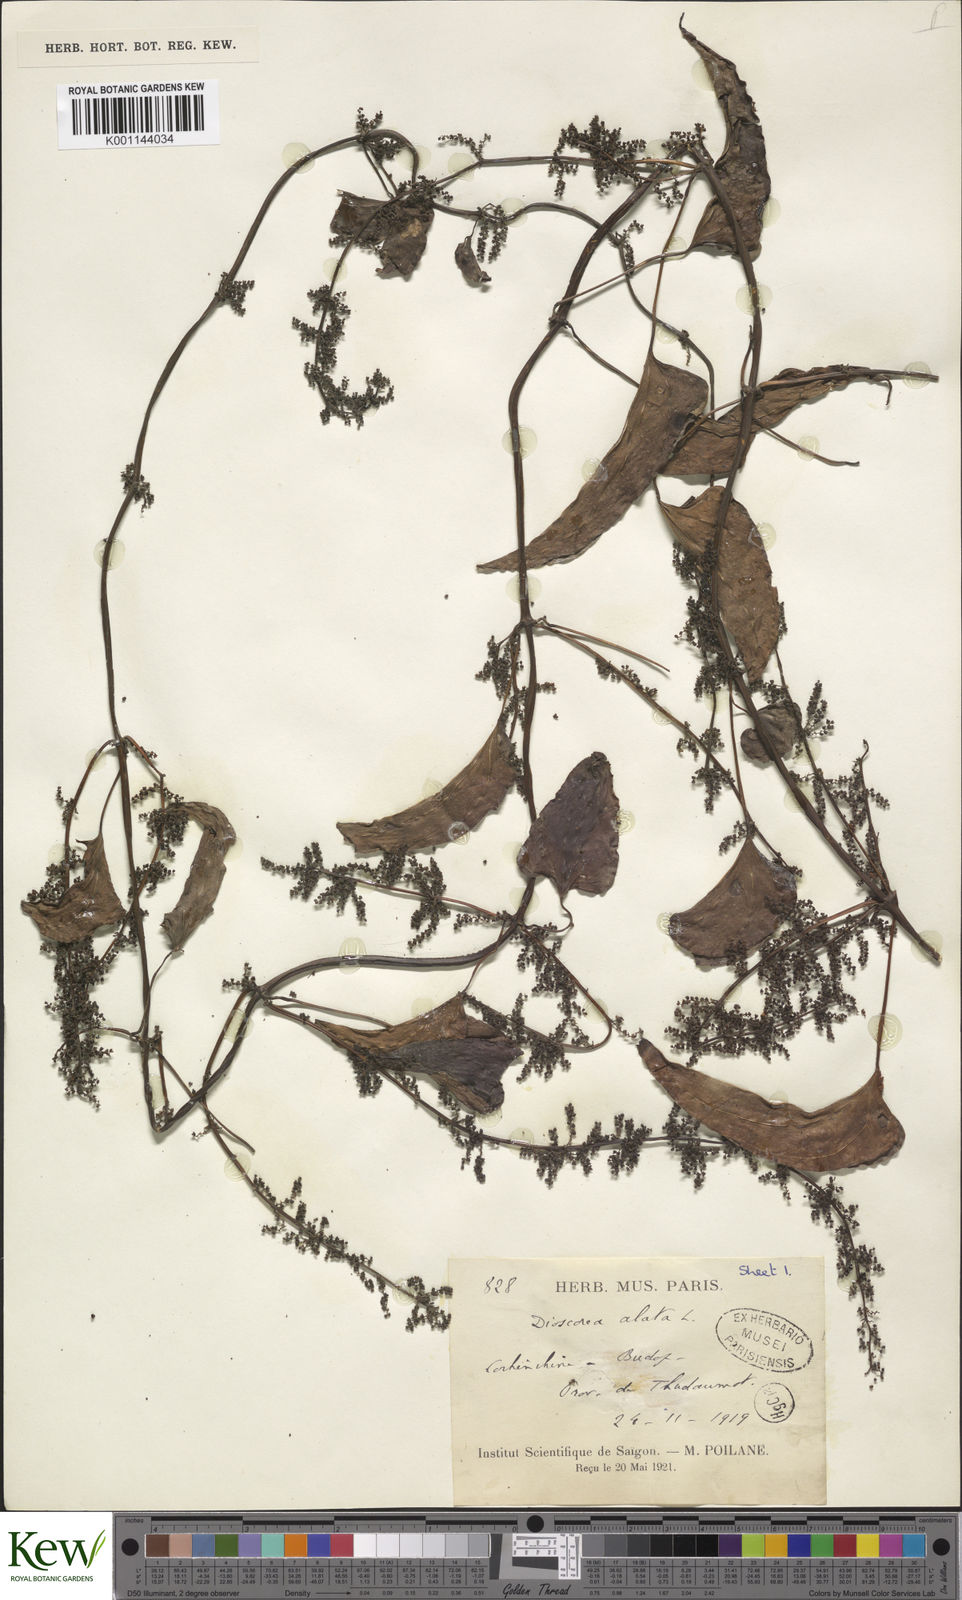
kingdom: Plantae
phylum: Tracheophyta
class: Liliopsida
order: Dioscoreales
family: Dioscoreaceae
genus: Dioscorea
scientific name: Dioscorea alata
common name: Water yam
